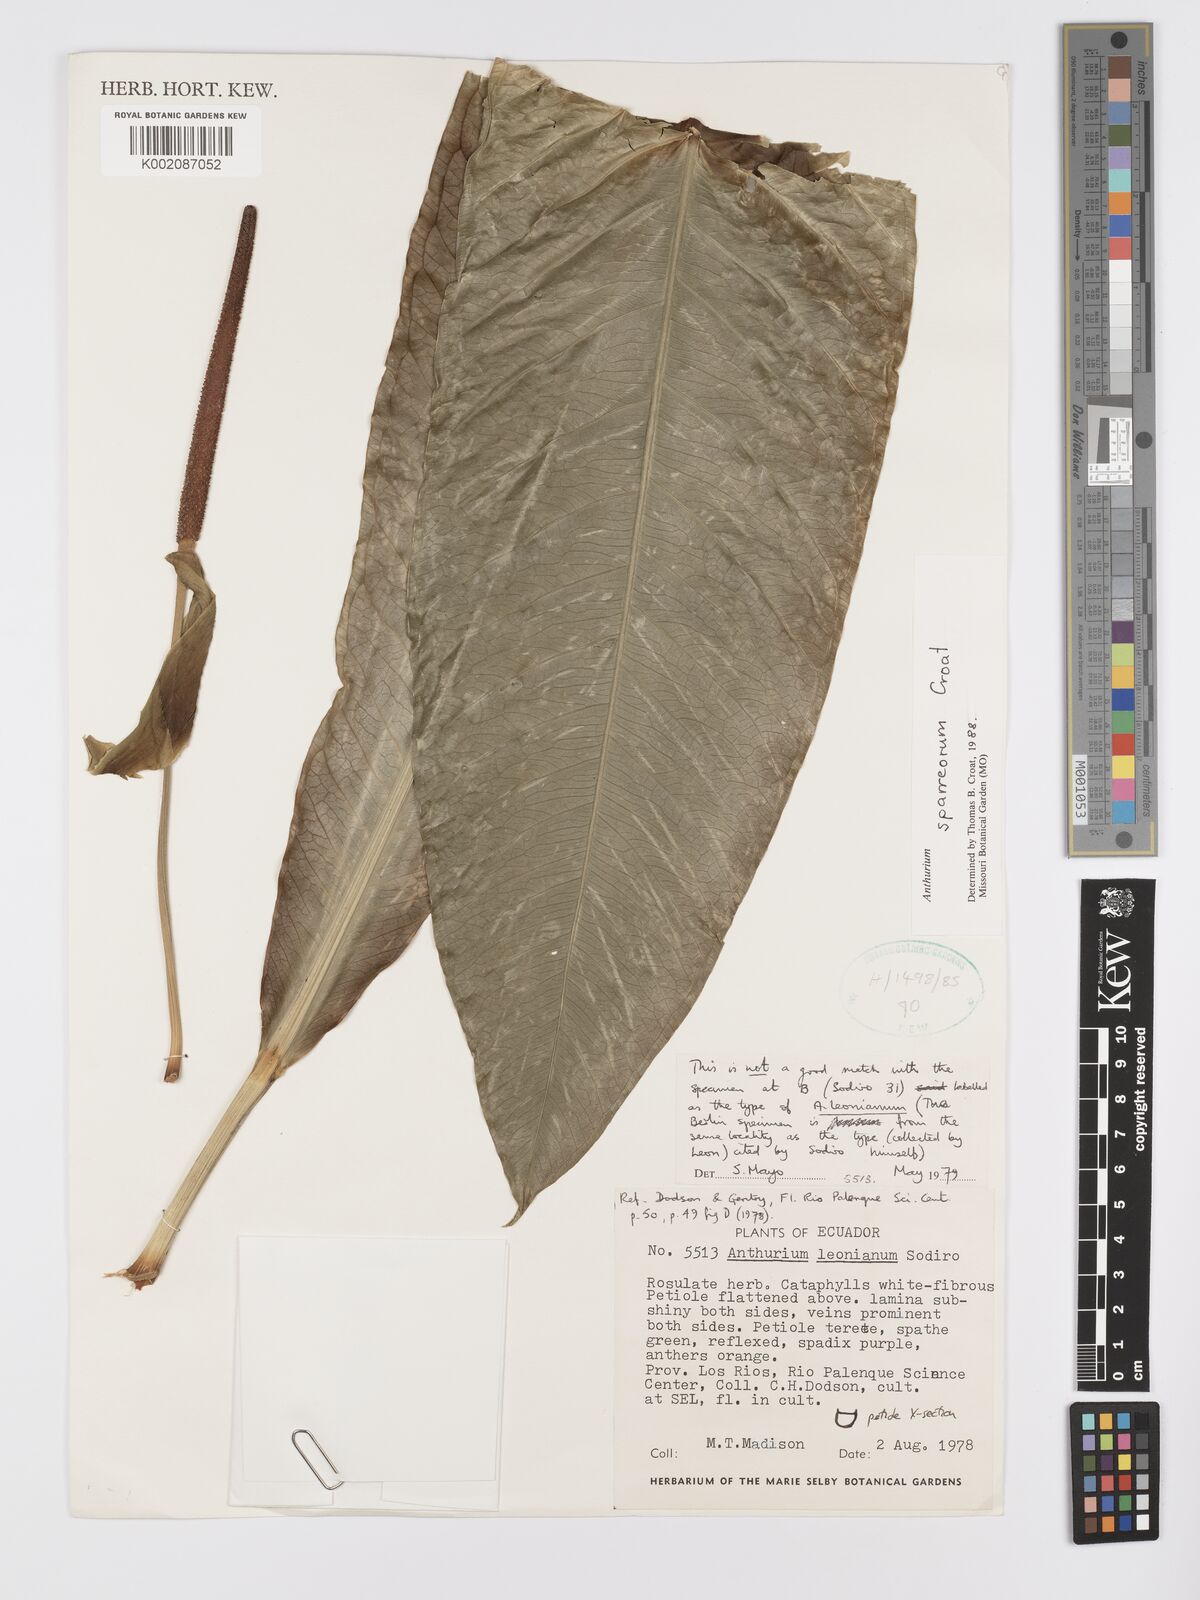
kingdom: Plantae
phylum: Tracheophyta
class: Liliopsida
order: Alismatales
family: Araceae
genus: Anthurium
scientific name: Anthurium sparreorum
